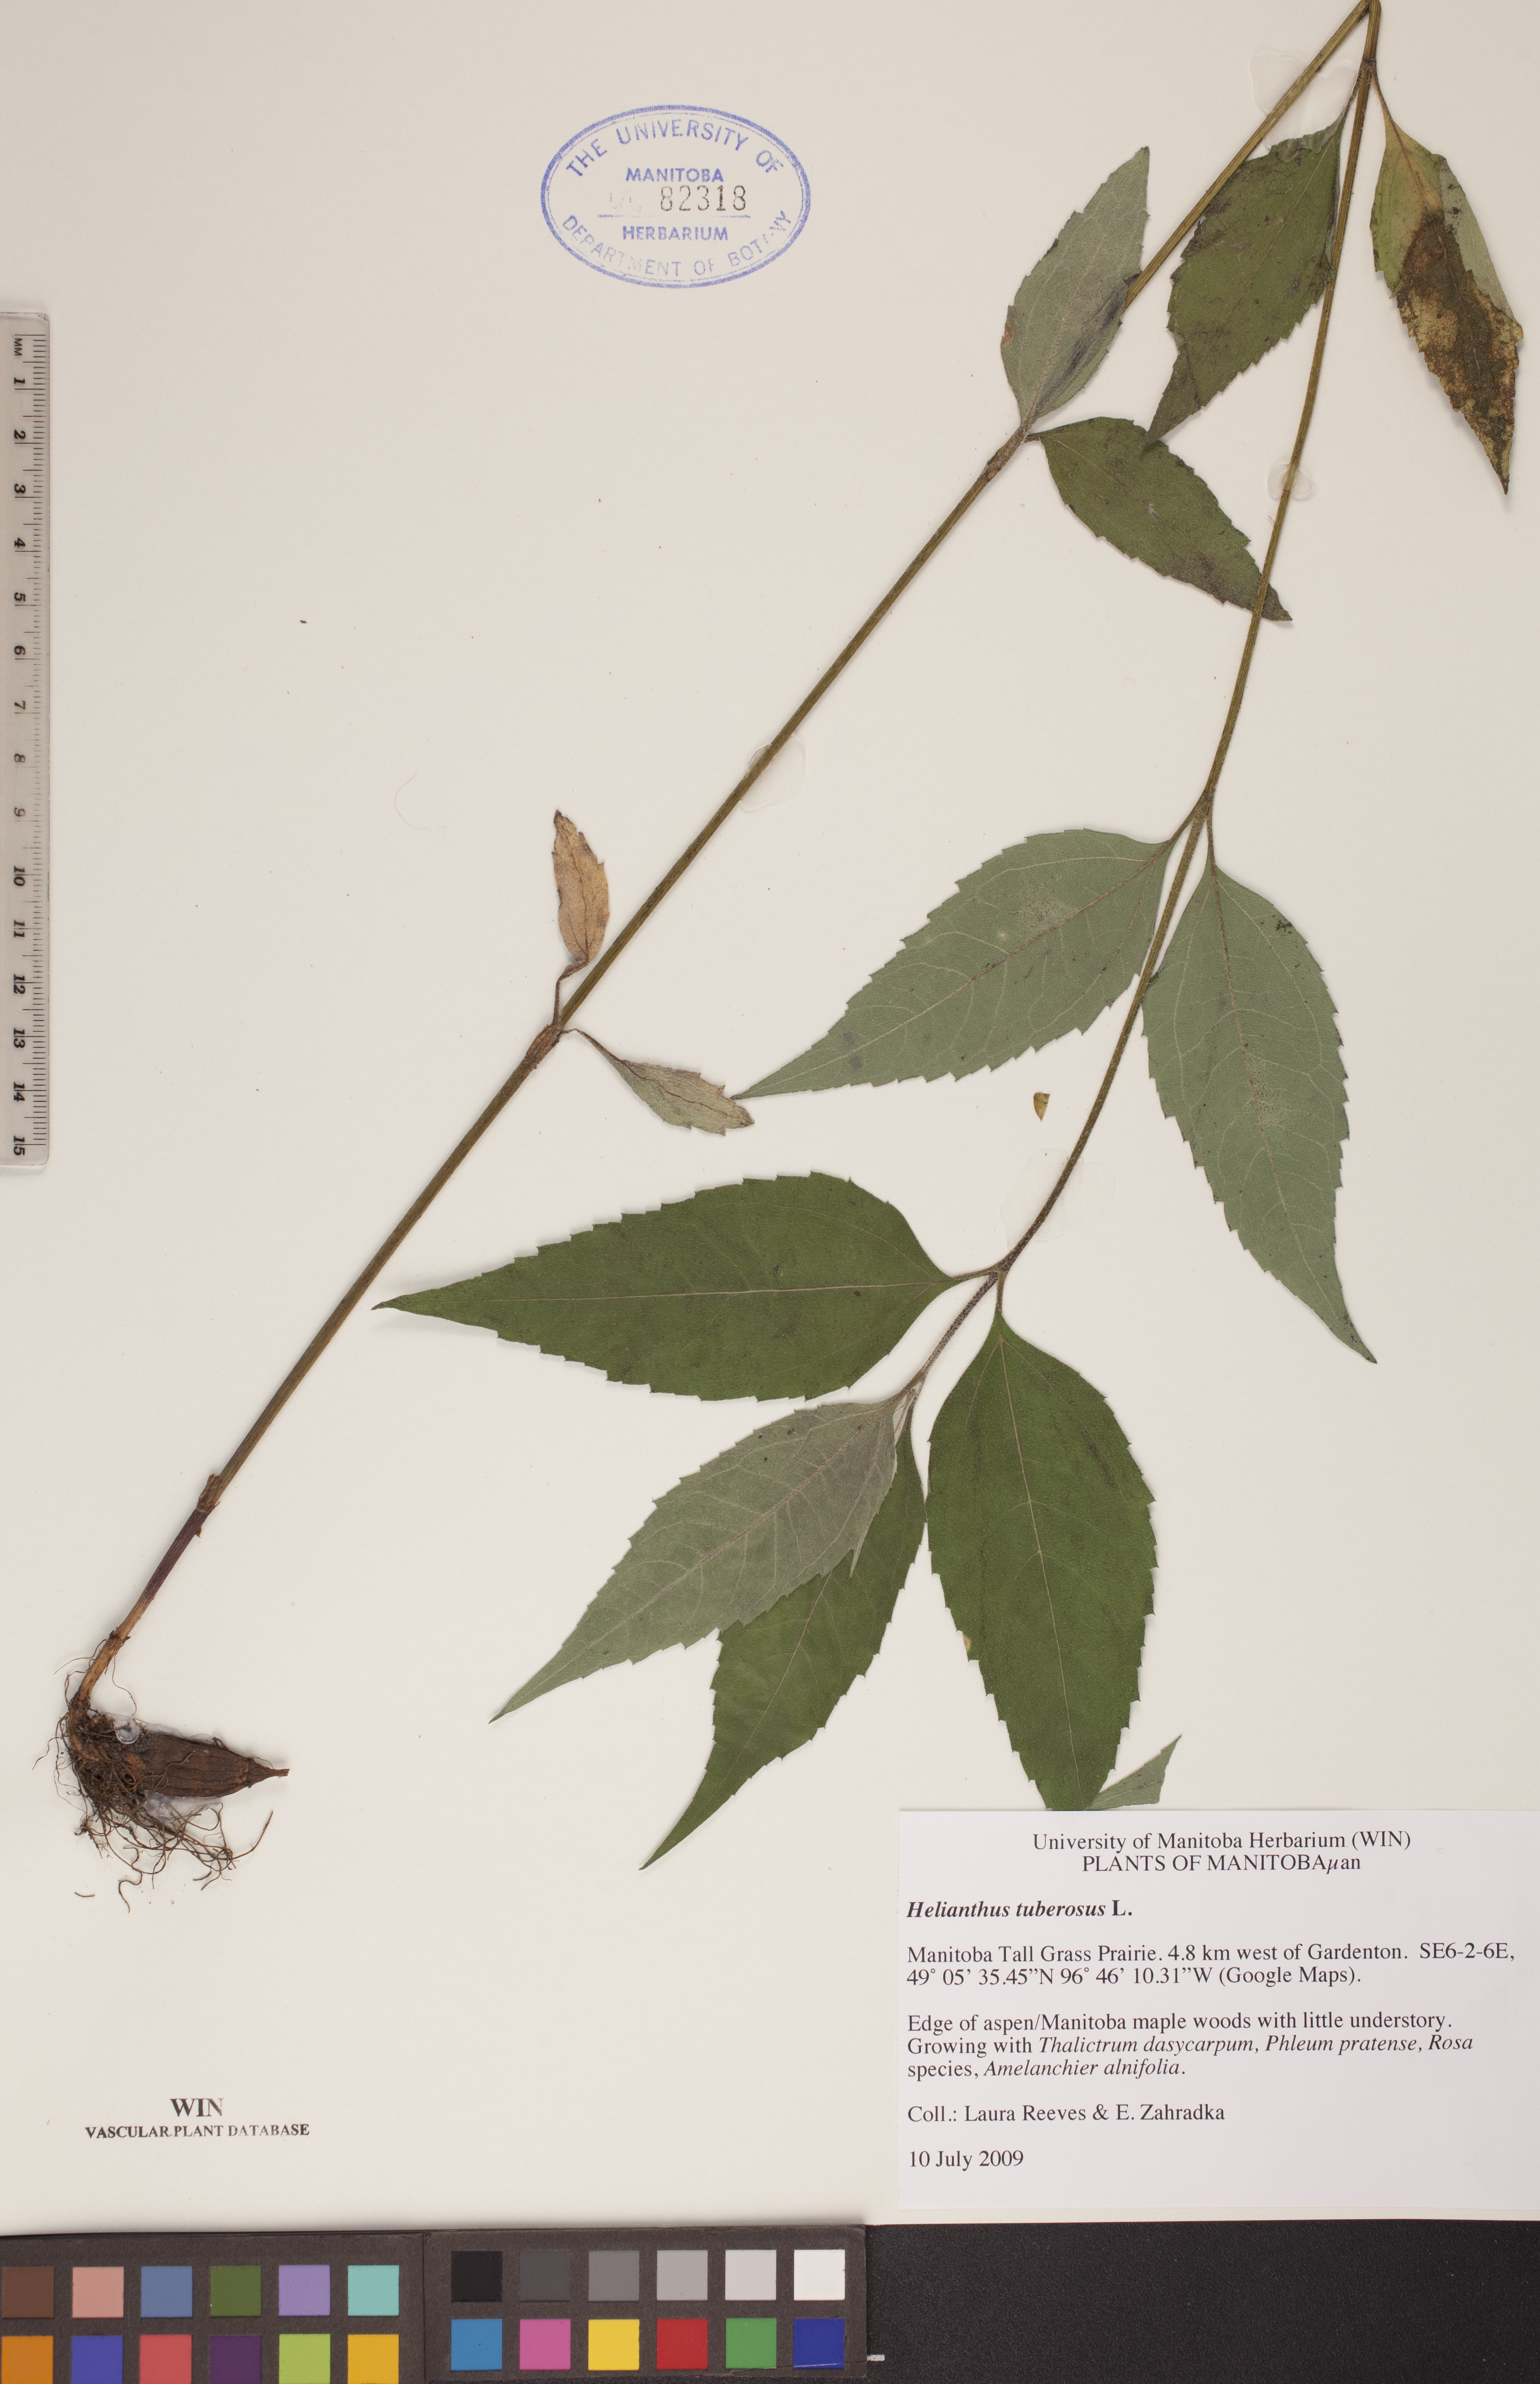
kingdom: Plantae
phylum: Tracheophyta
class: Magnoliopsida
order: Asterales
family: Asteraceae
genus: Helianthus
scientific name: Helianthus tuberosus
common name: Jerusalem artichoke
